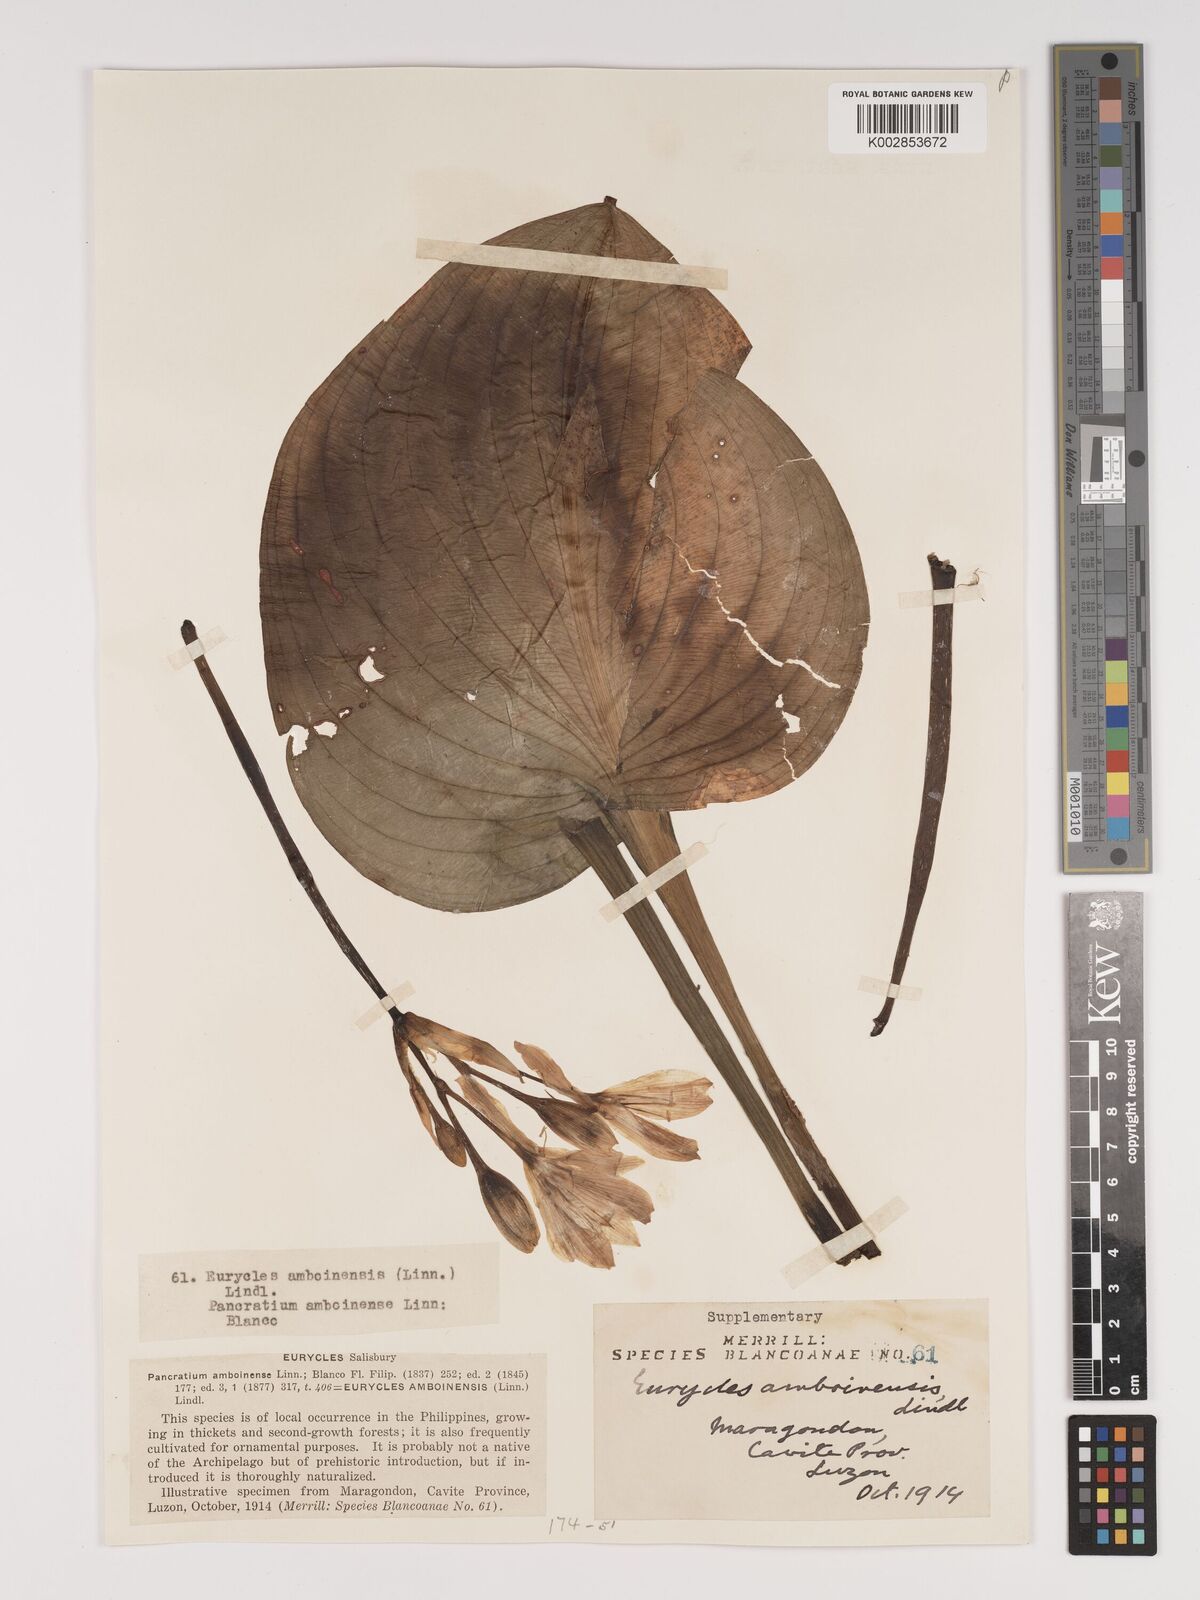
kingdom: Plantae
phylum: Tracheophyta
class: Liliopsida
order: Asparagales
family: Amaryllidaceae
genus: Proiphys
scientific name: Proiphys amboinensis
